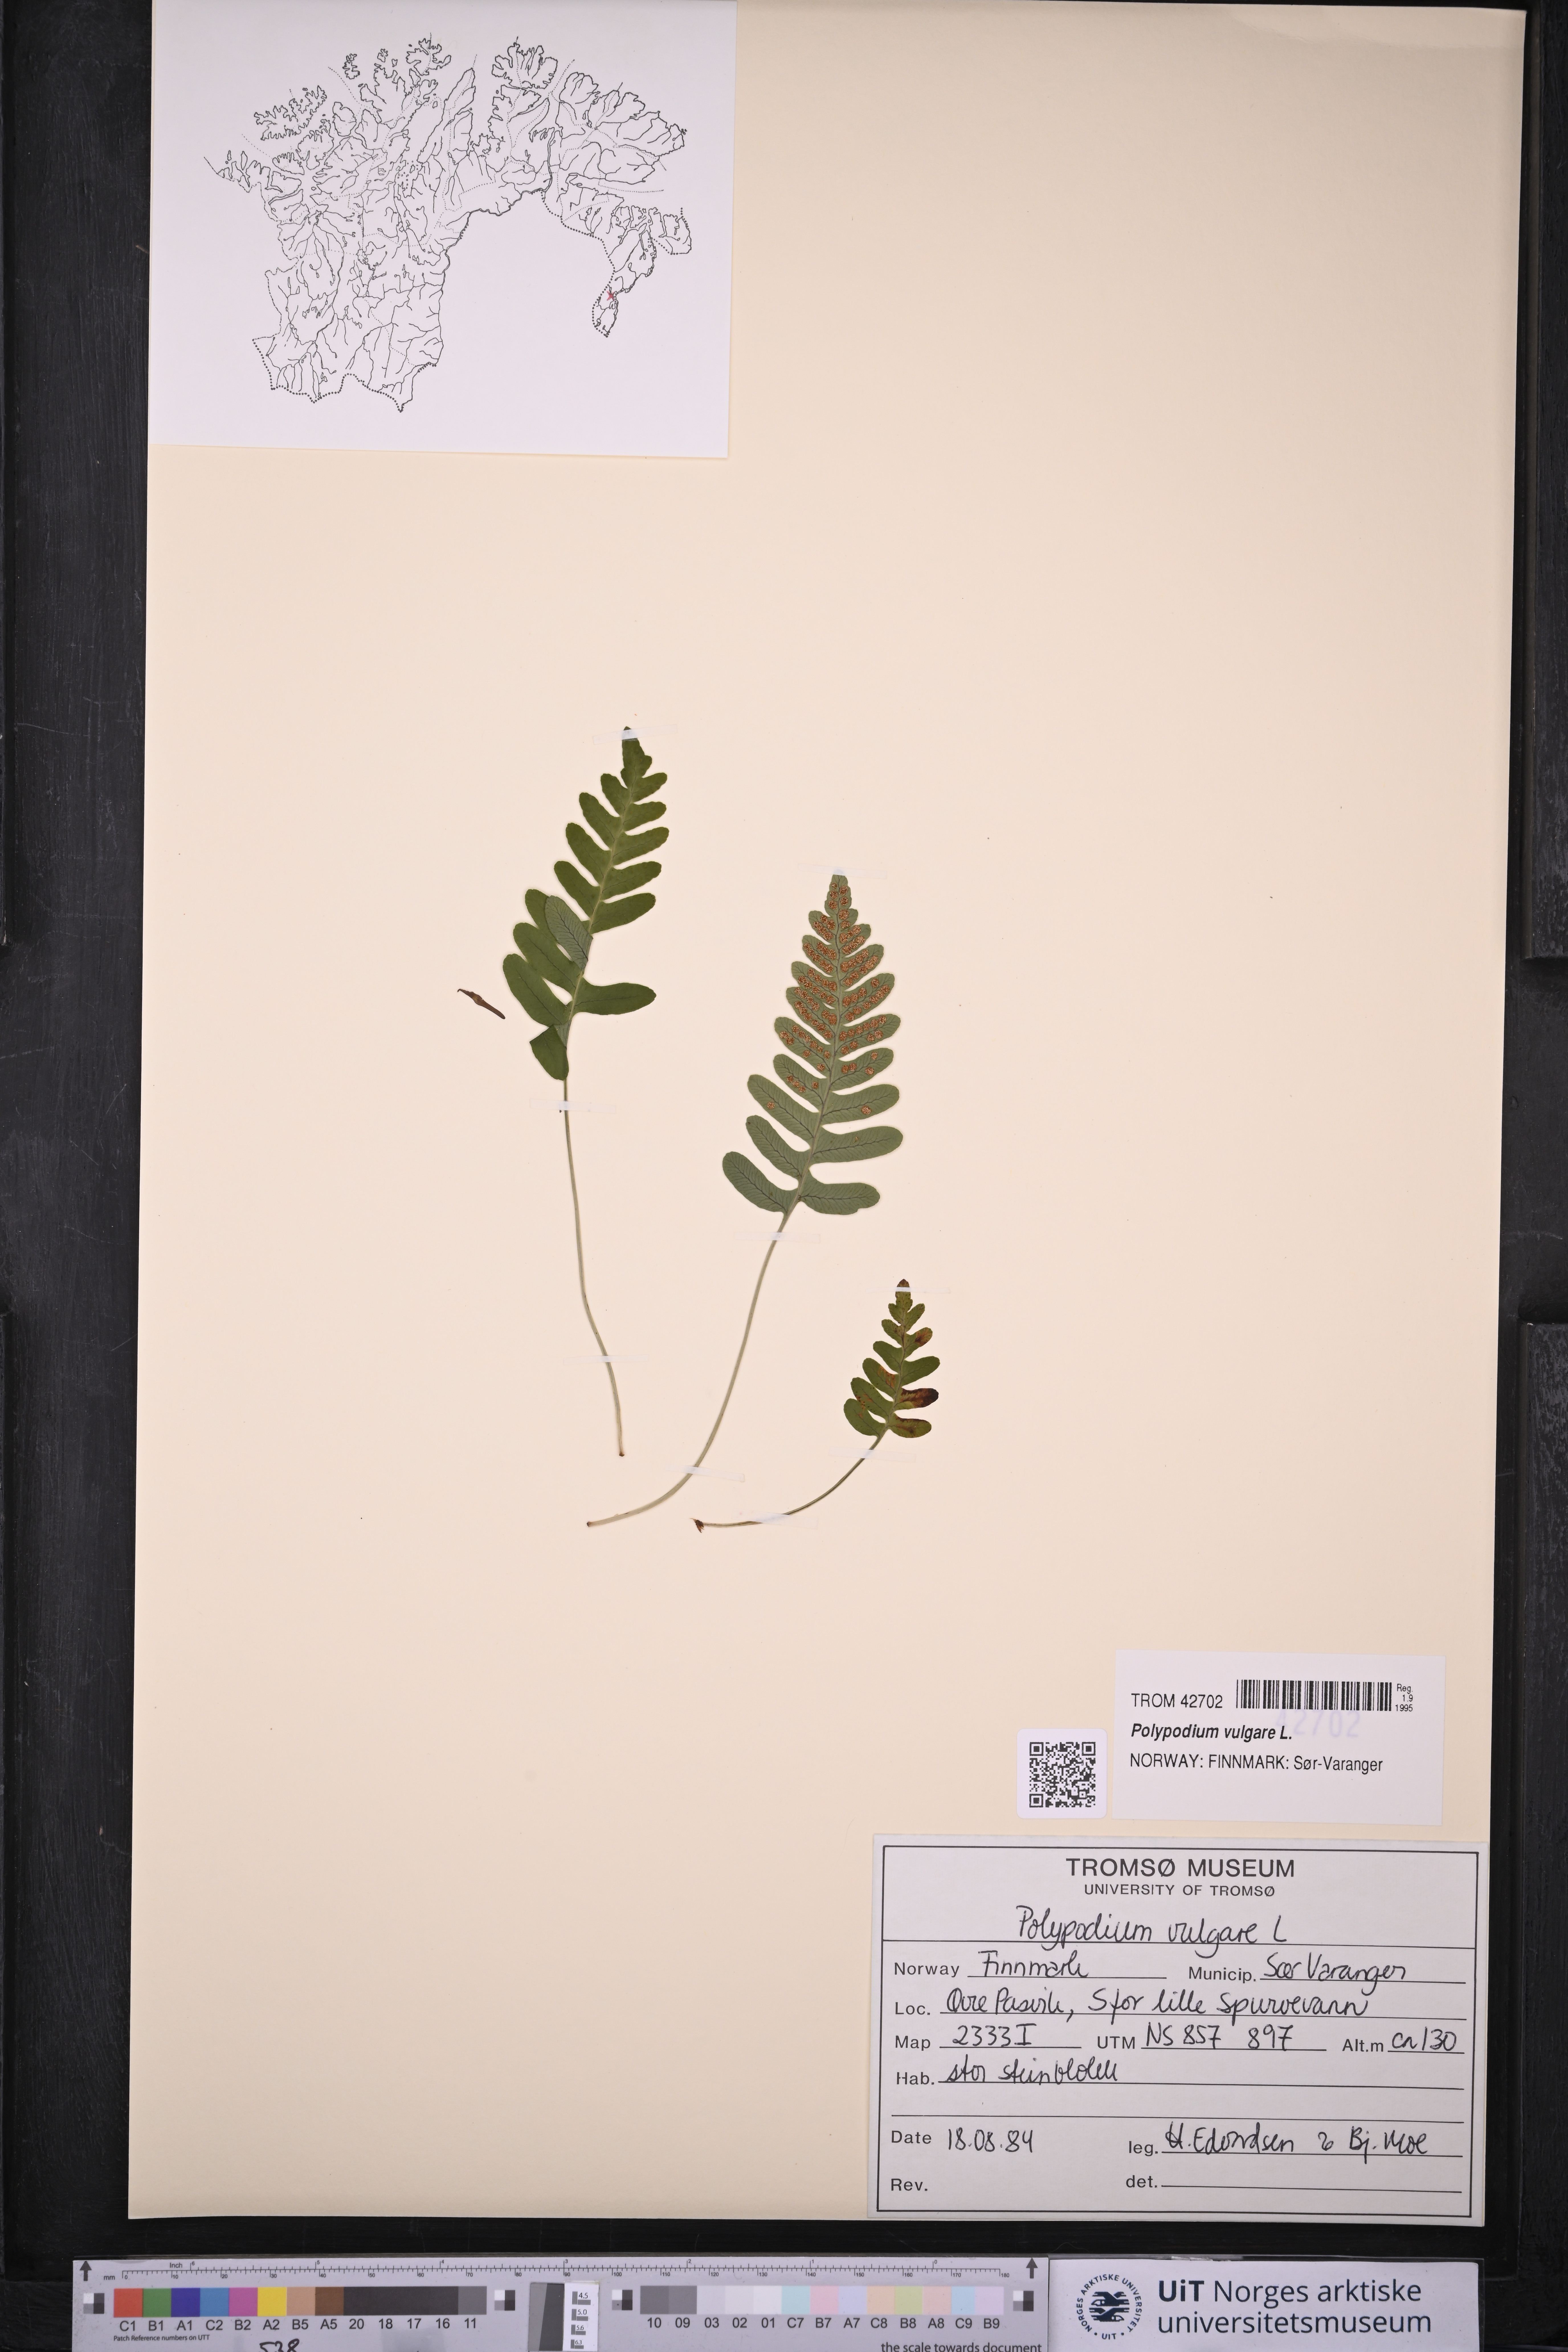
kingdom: Plantae
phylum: Tracheophyta
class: Polypodiopsida
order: Polypodiales
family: Polypodiaceae
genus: Polypodium
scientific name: Polypodium vulgare
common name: Common polypody
